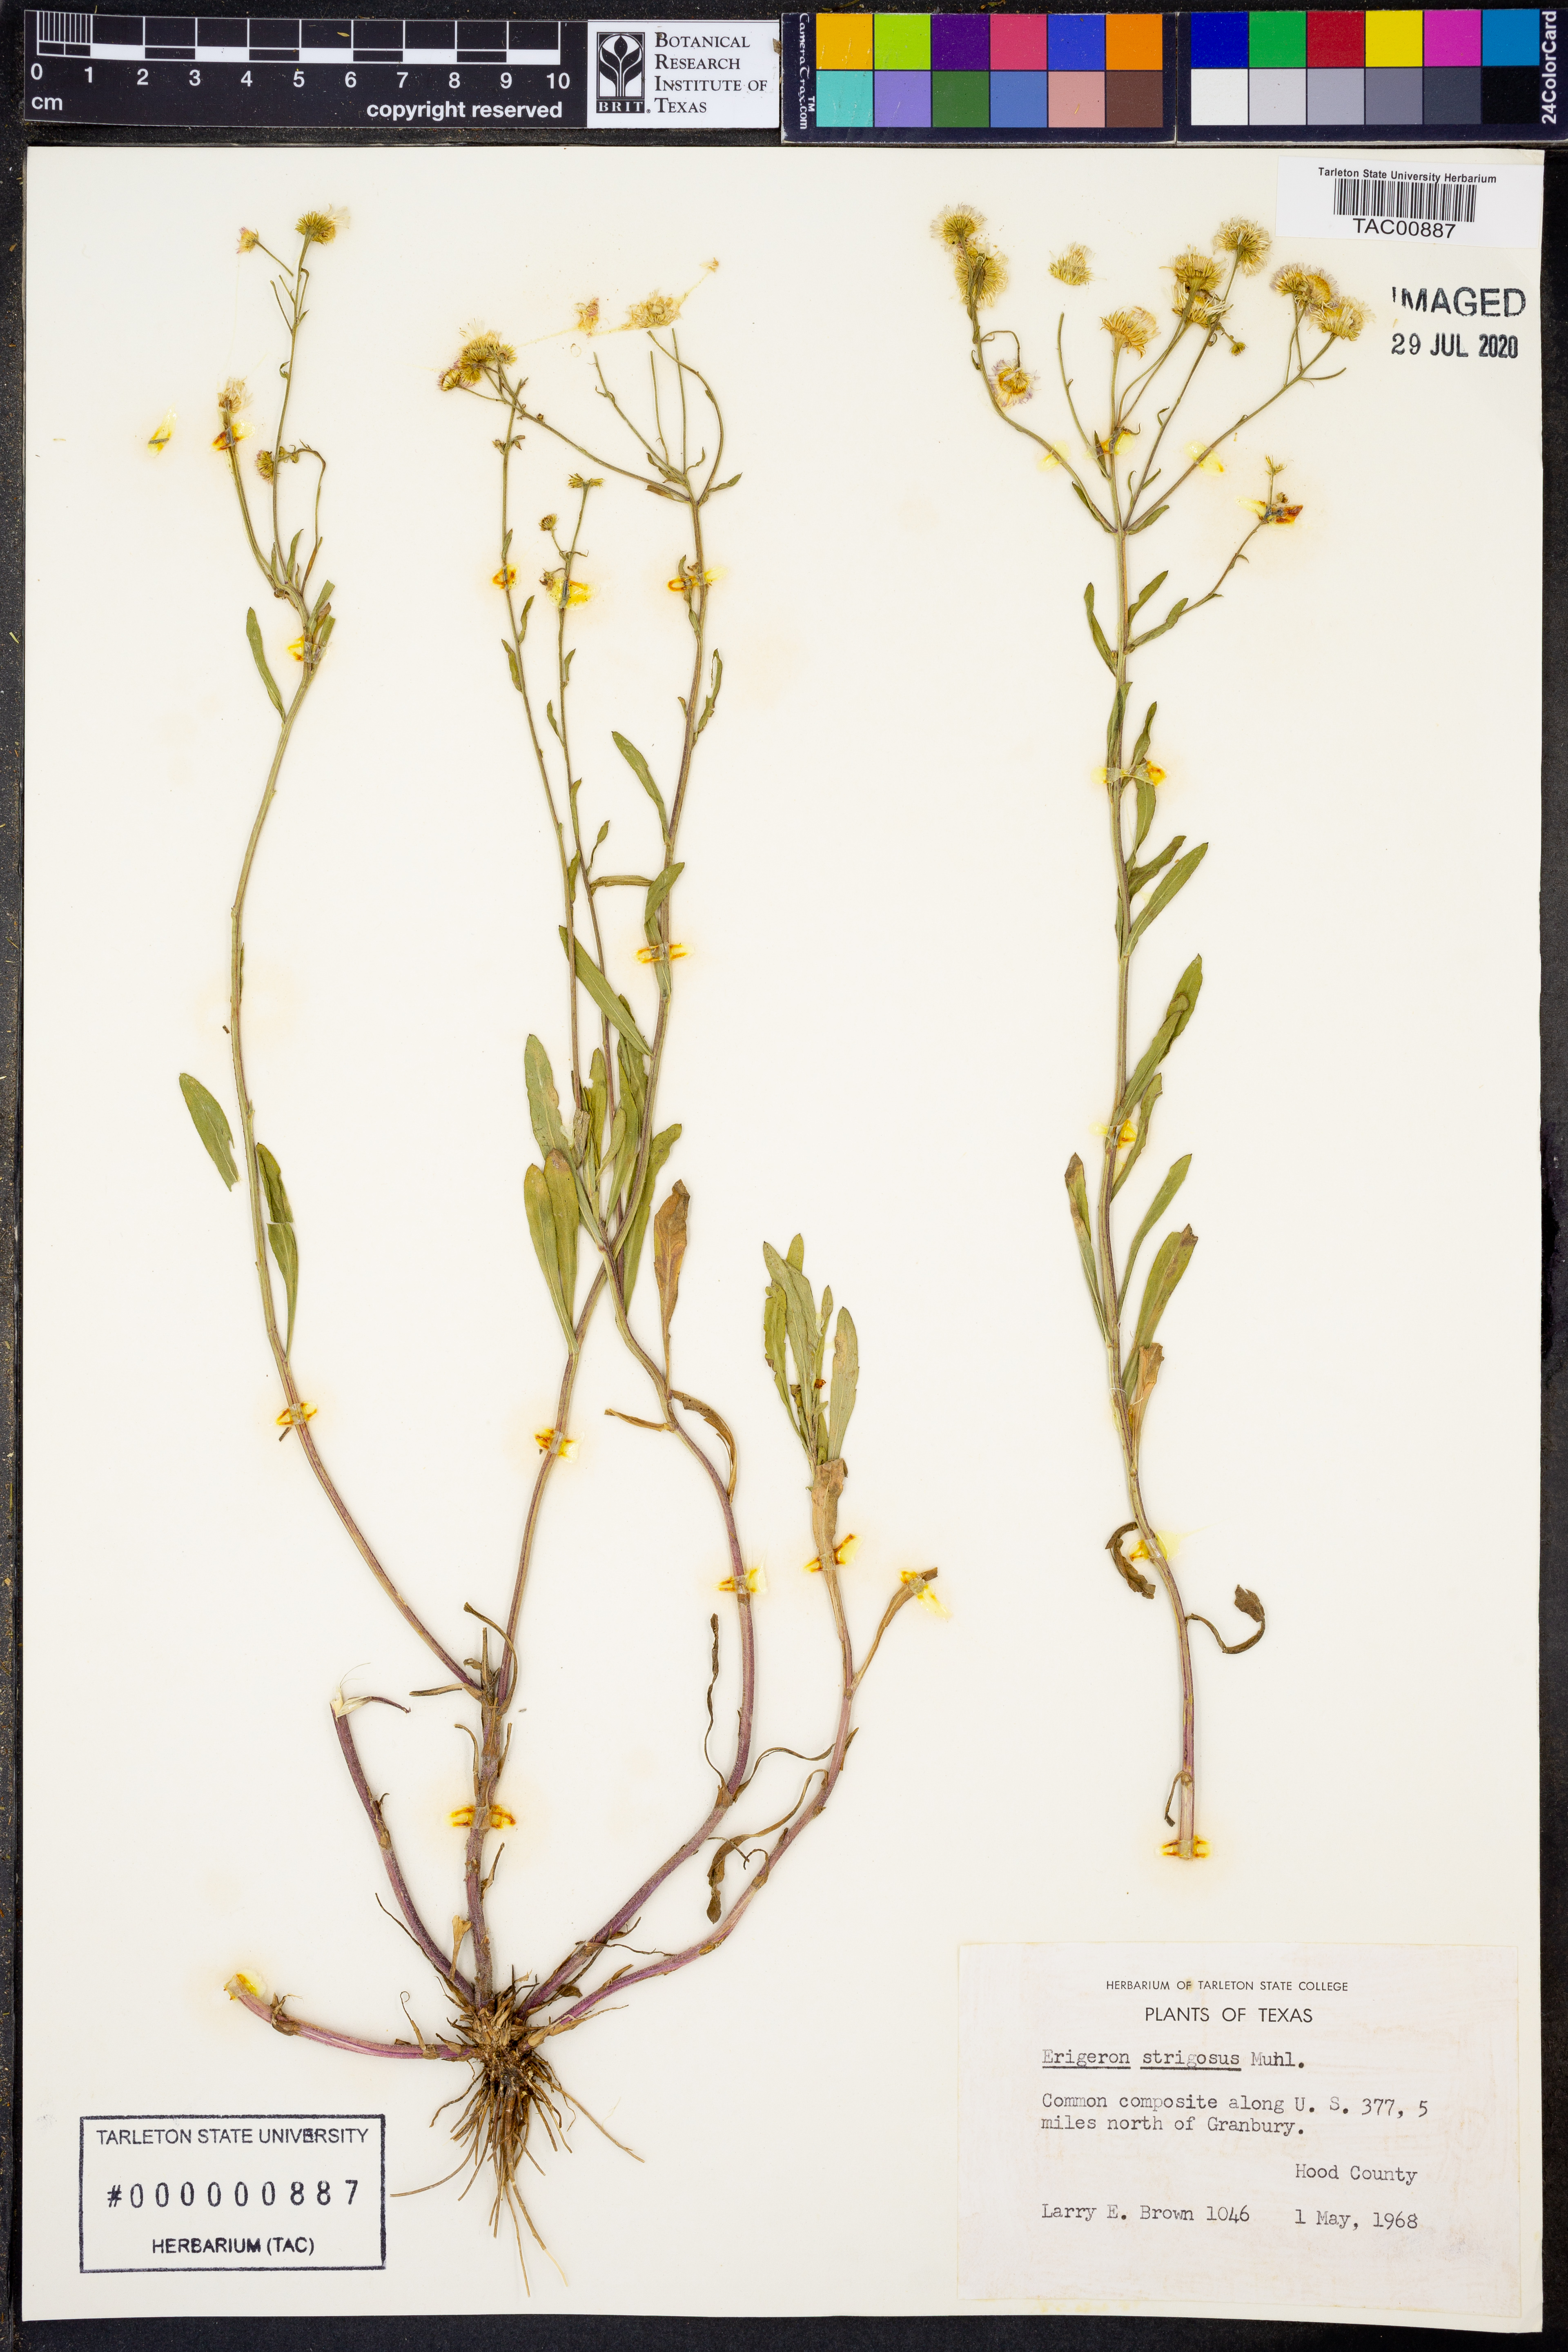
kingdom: Plantae
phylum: Tracheophyta
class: Magnoliopsida
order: Asterales
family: Asteraceae
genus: Erigeron
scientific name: Erigeron strigosus
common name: Common eastern fleabane
